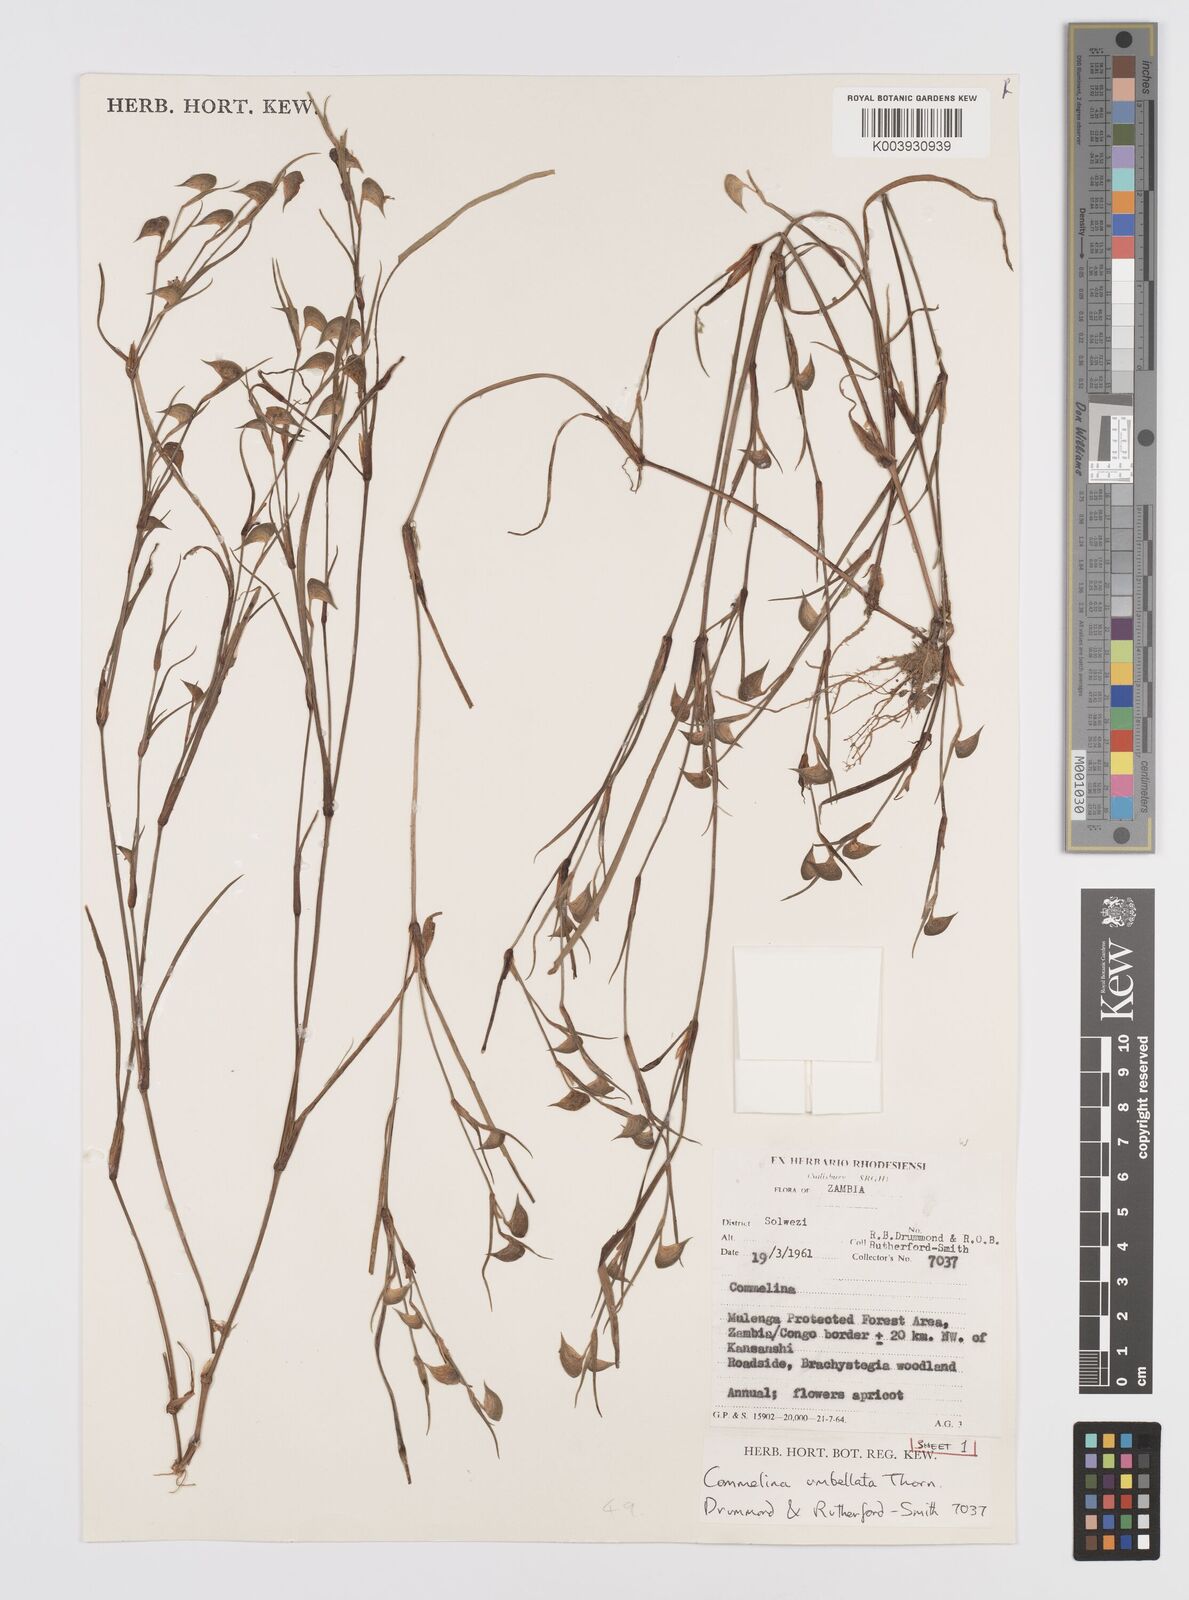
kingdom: Plantae
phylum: Tracheophyta
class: Liliopsida
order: Commelinales
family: Commelinaceae
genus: Commelina
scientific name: Commelina nigritana
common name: African dayflower
